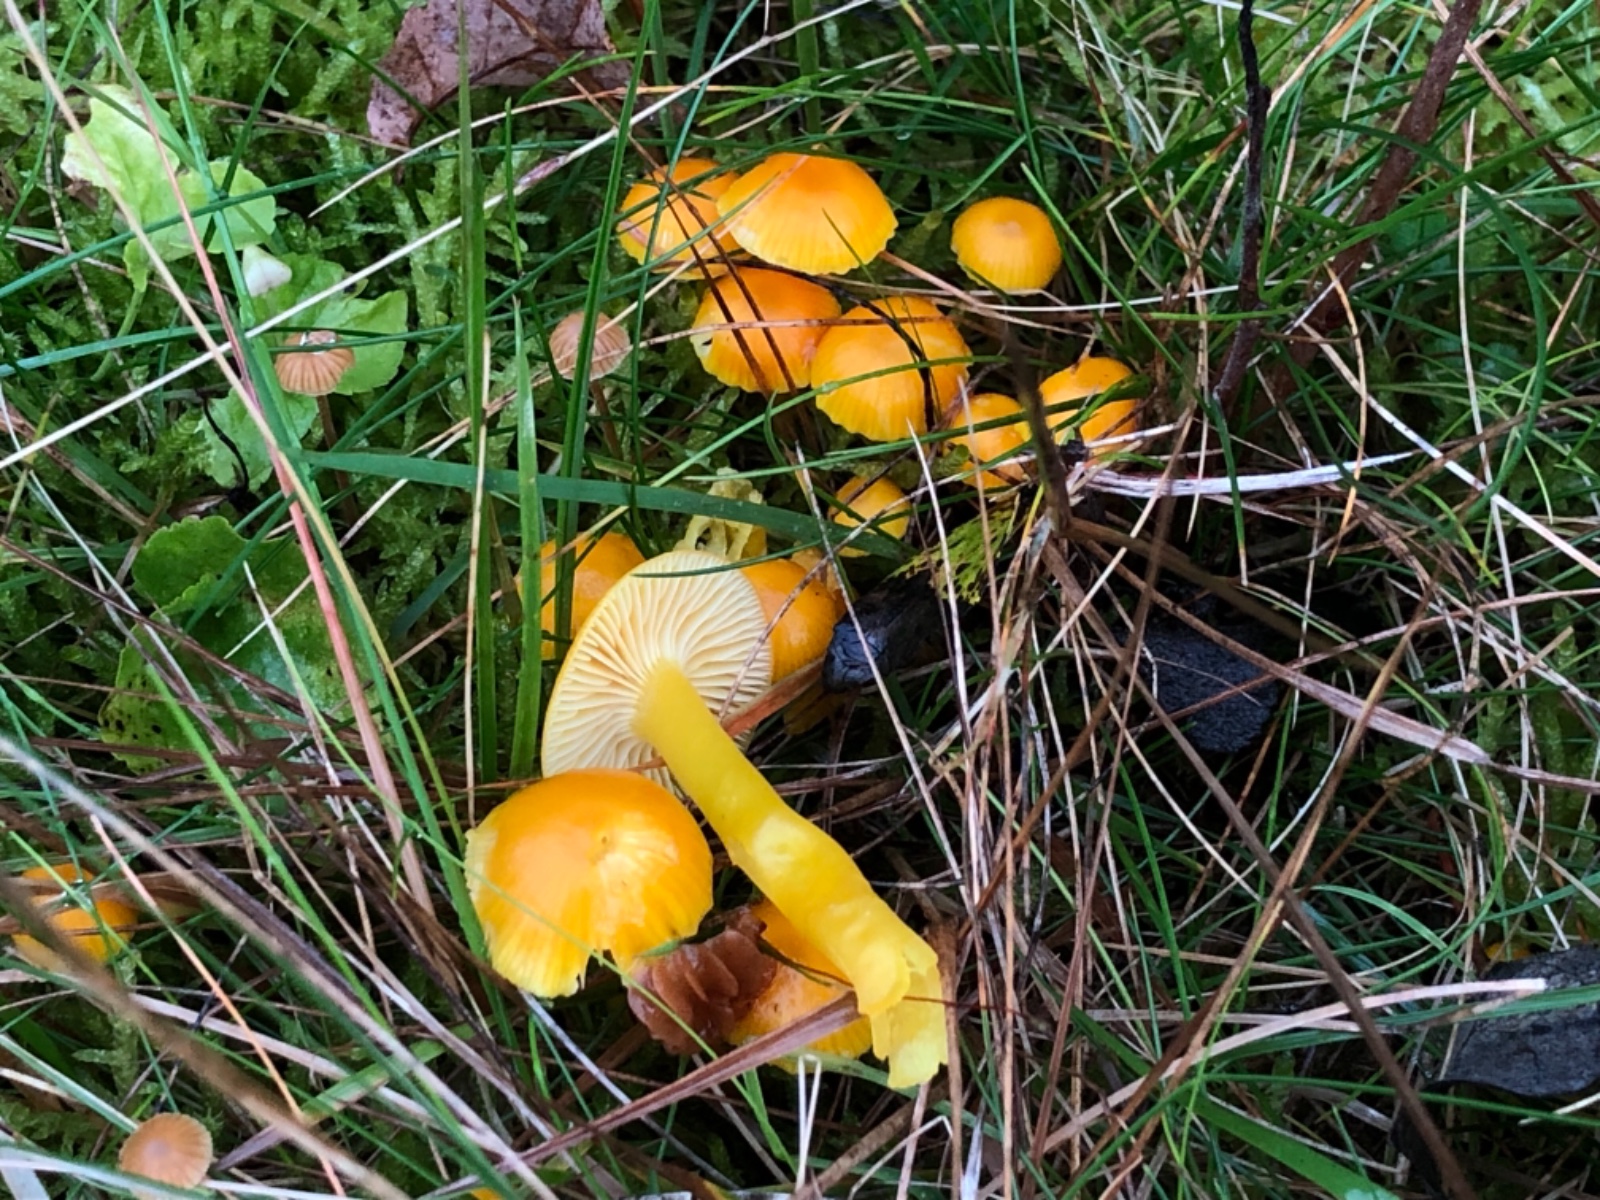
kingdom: Fungi
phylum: Basidiomycota
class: Agaricomycetes
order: Agaricales
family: Hygrophoraceae
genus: Hygrocybe
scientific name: Hygrocybe ceracea
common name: voksgul vokshat
